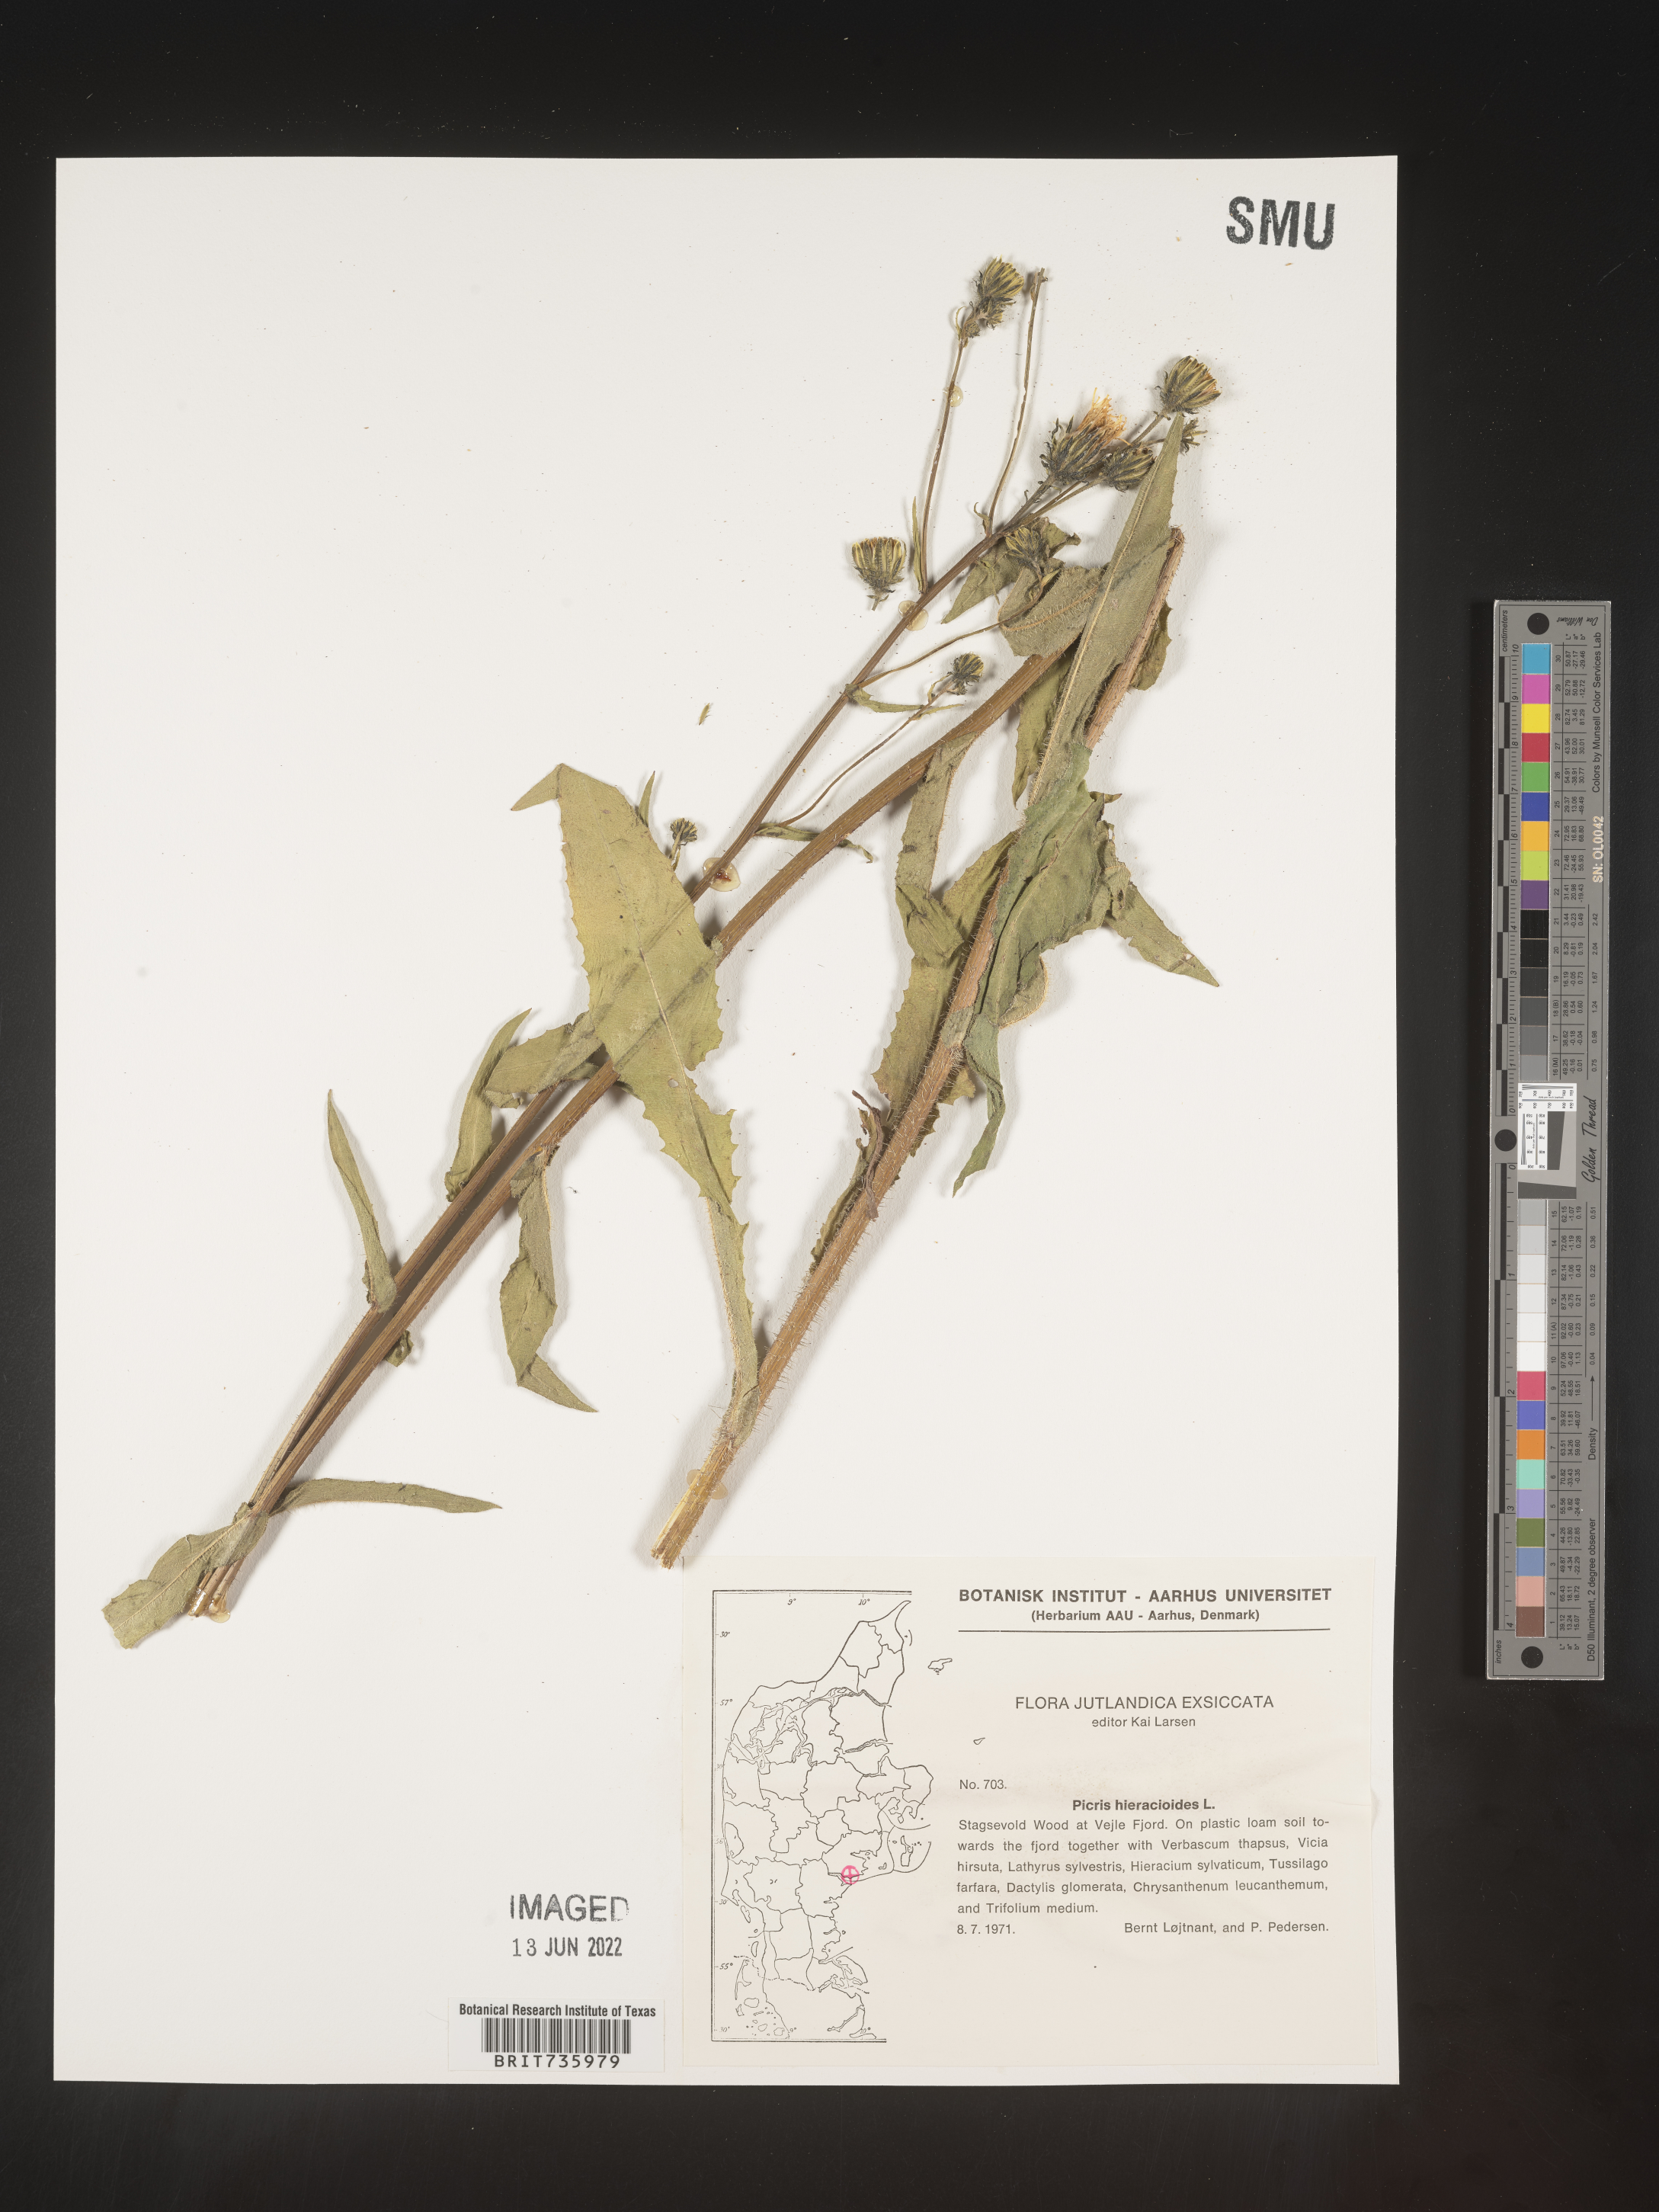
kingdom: Plantae
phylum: Tracheophyta
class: Magnoliopsida
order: Asterales
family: Asteraceae
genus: Picris
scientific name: Picris
